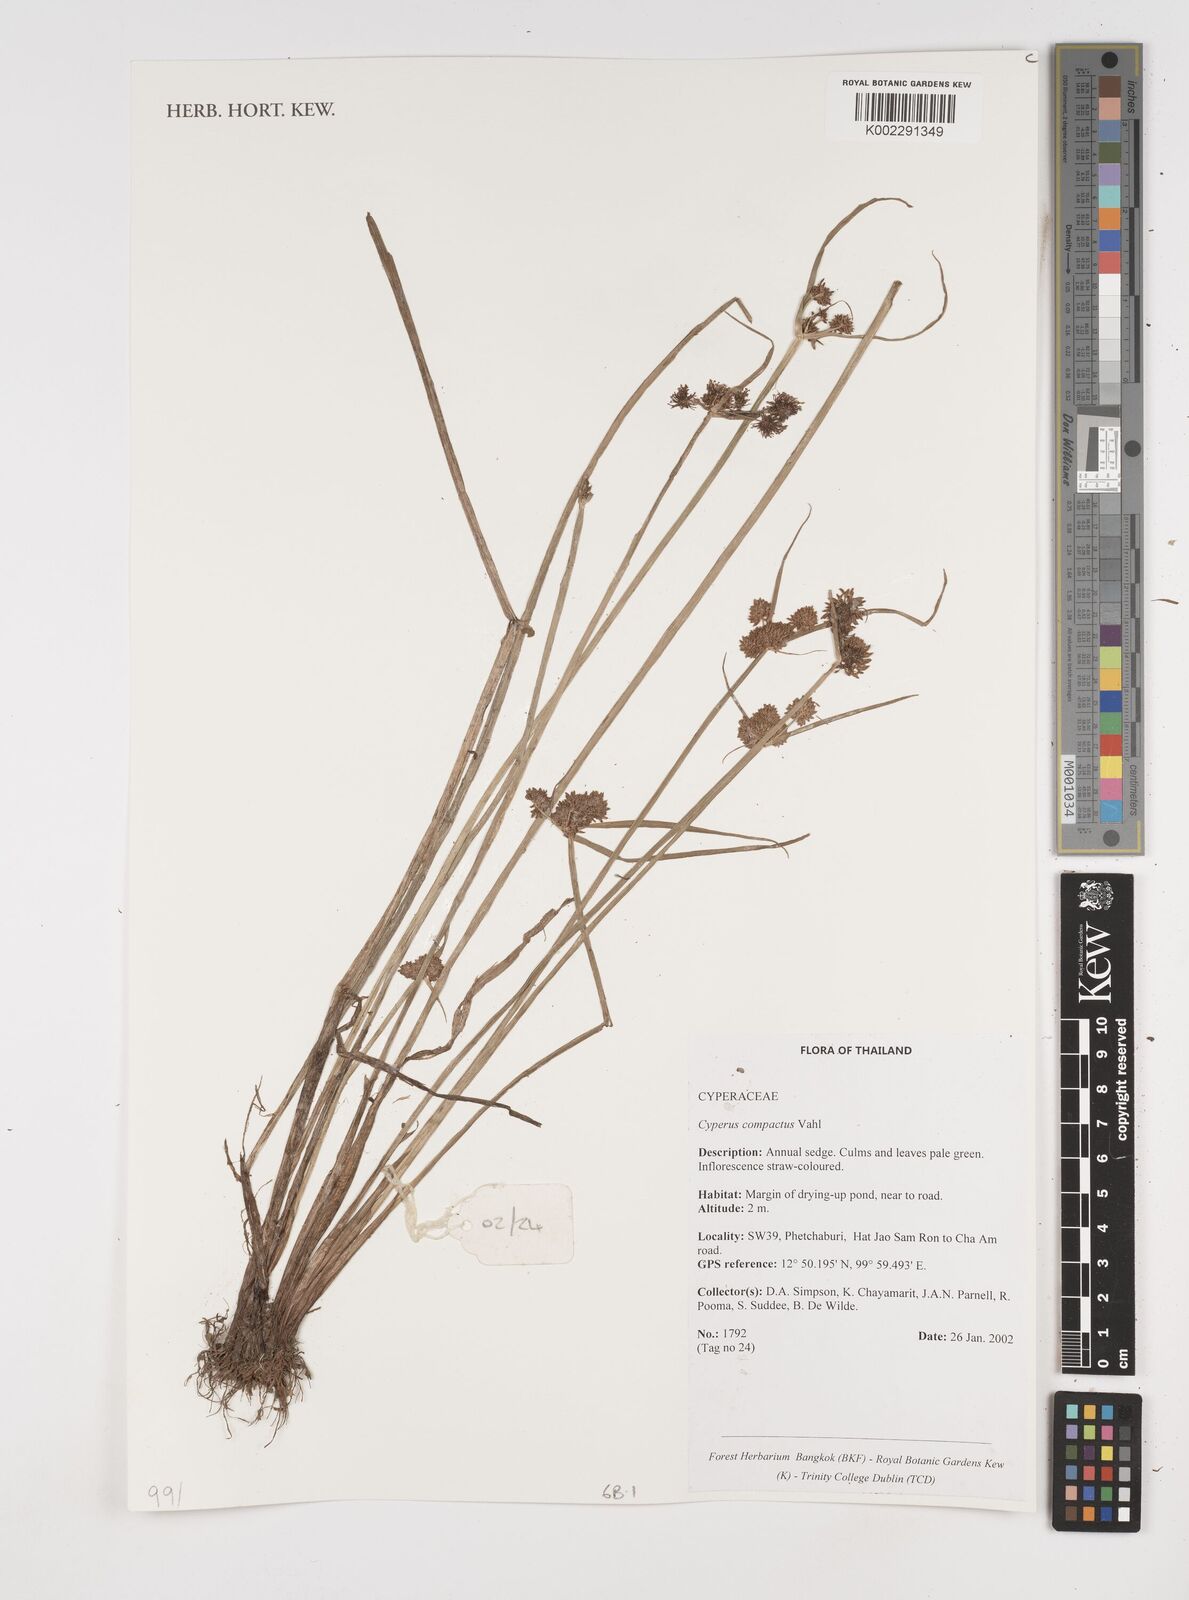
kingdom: Plantae
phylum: Tracheophyta
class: Liliopsida
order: Poales
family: Cyperaceae
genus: Cyperus
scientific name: Cyperus compactus
